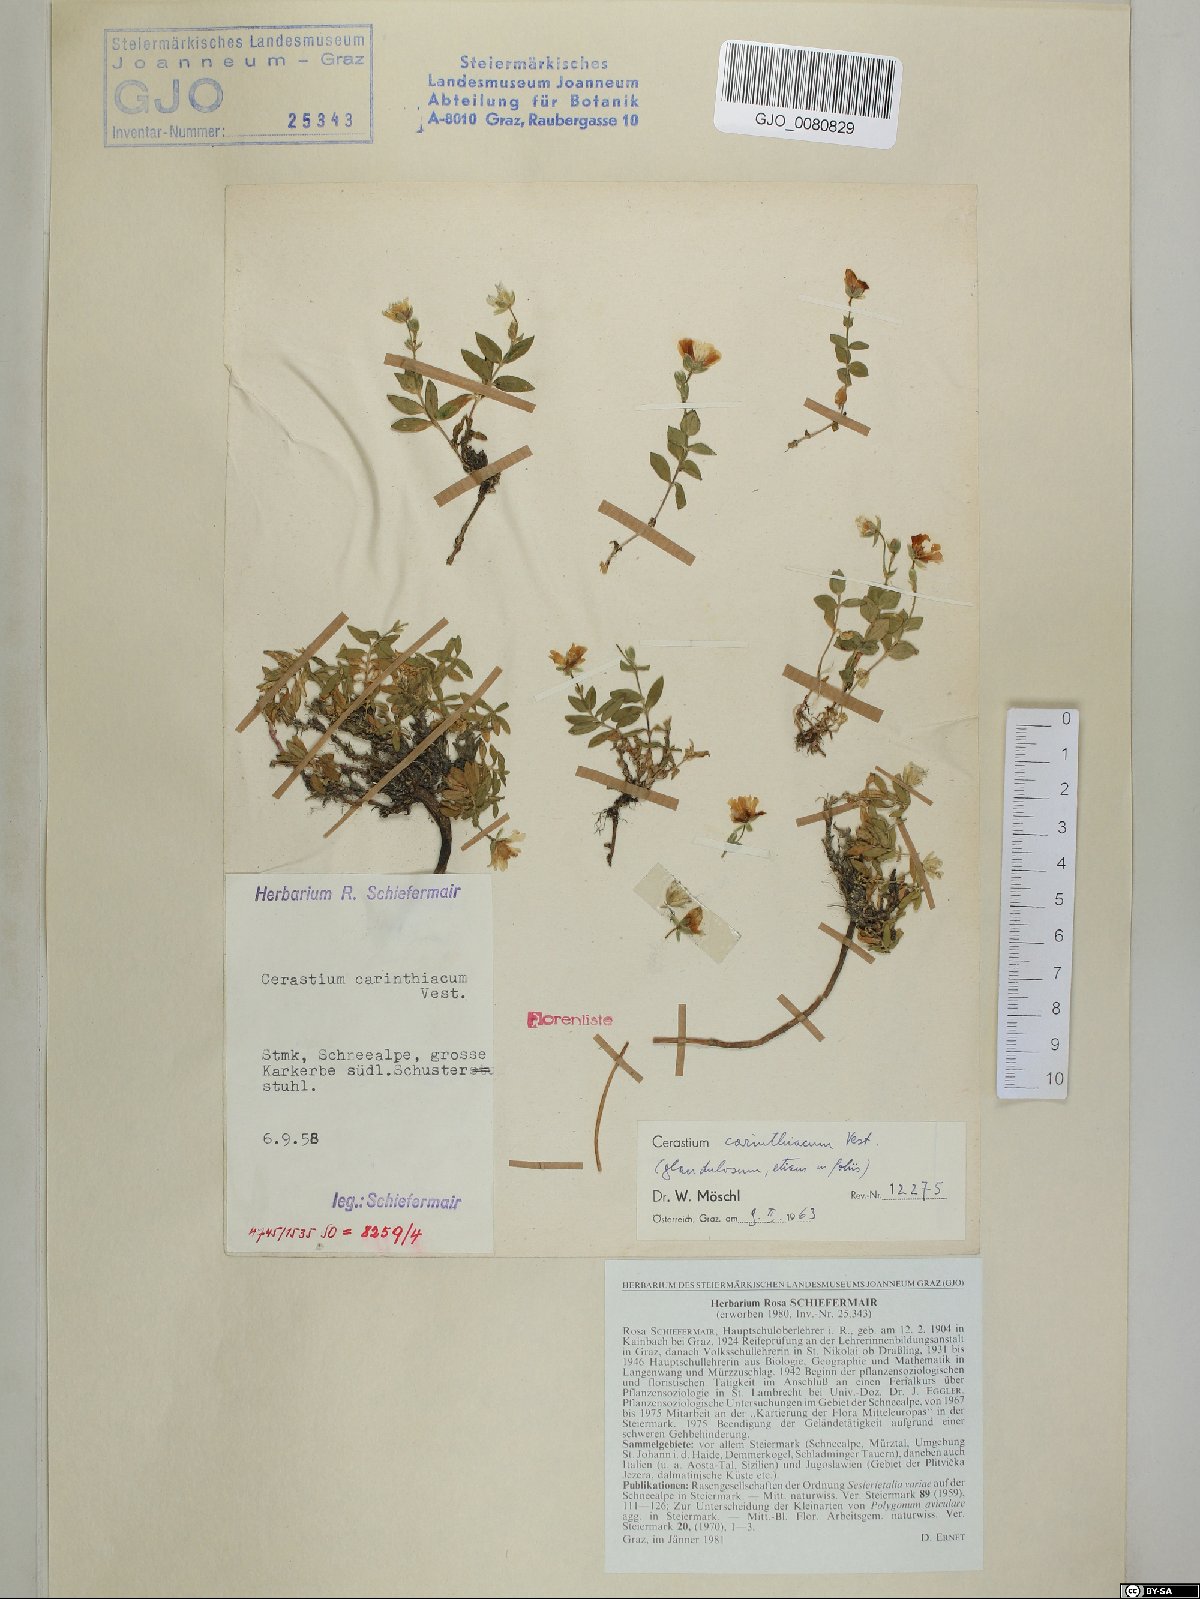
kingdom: Plantae
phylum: Tracheophyta
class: Magnoliopsida
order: Caryophyllales
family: Caryophyllaceae
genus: Cerastium
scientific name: Cerastium carinthiacum
